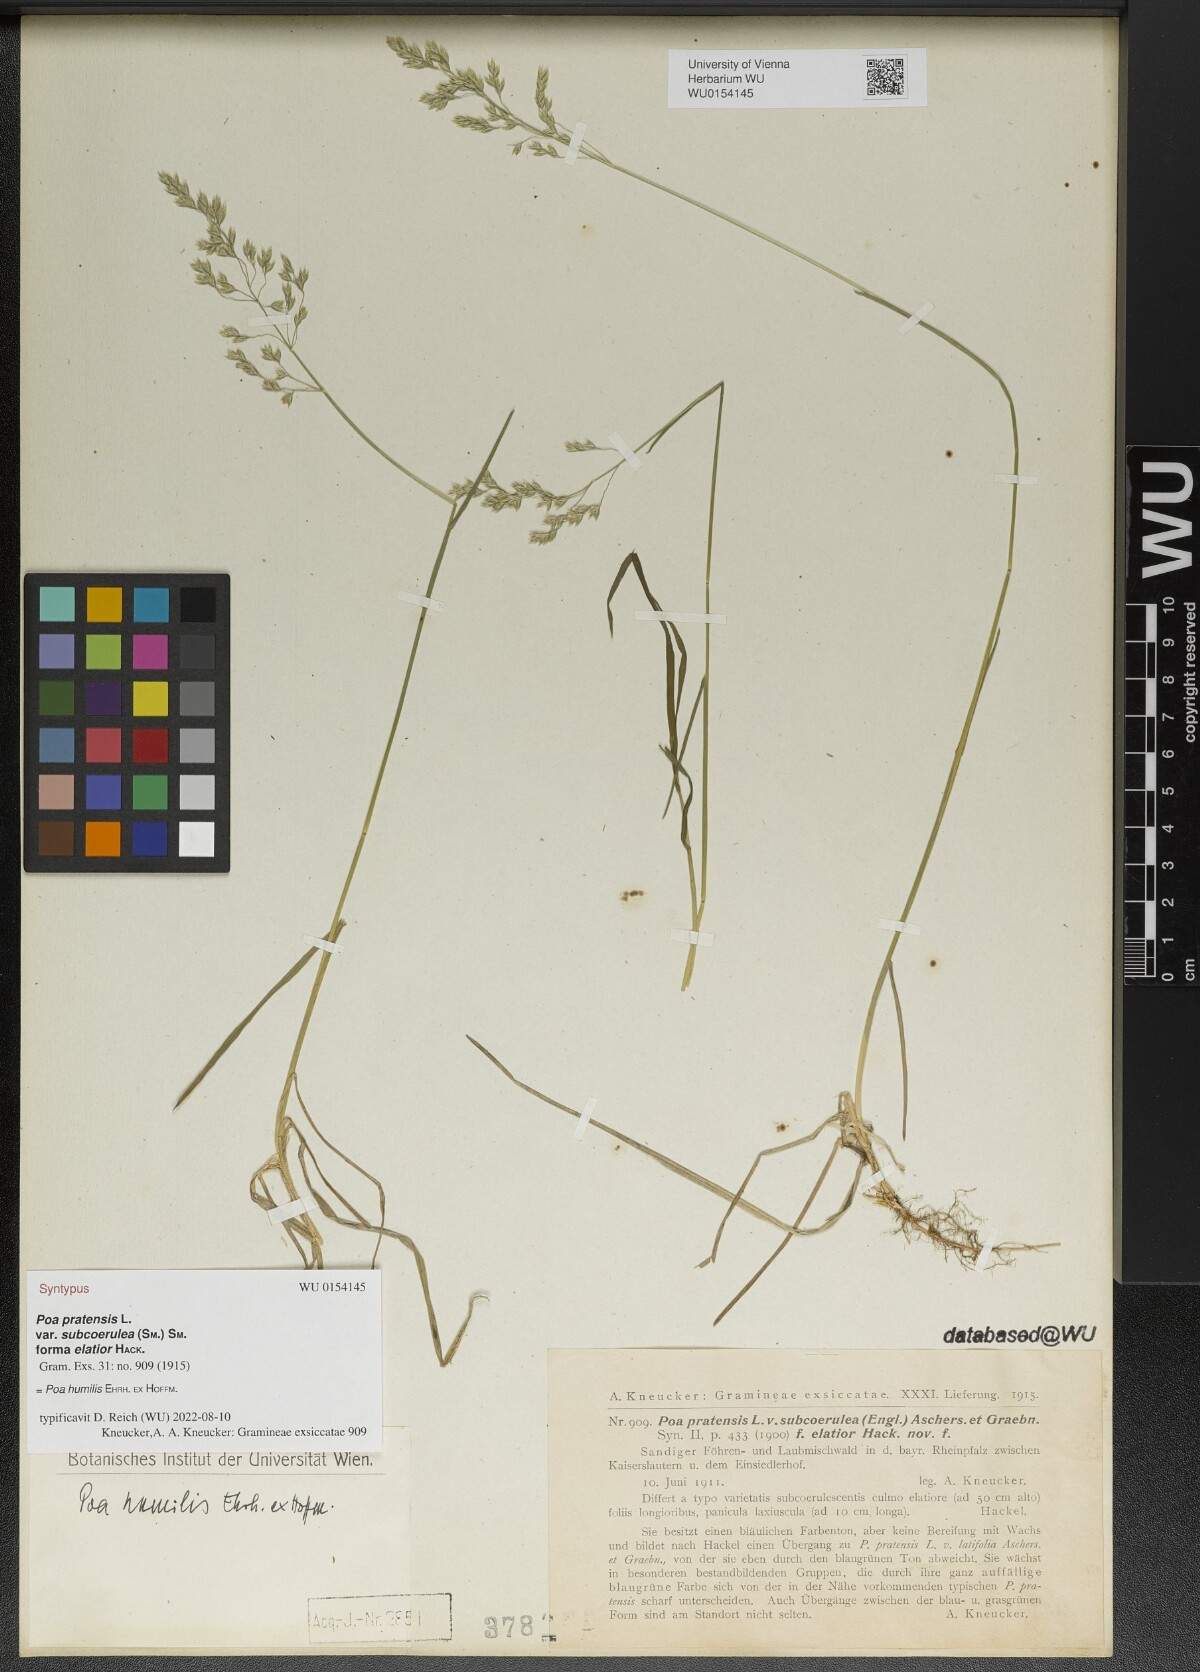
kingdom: Plantae
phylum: Tracheophyta
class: Liliopsida
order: Poales
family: Poaceae
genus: Poa
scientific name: Poa pratensis
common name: Kentucky bluegrass
